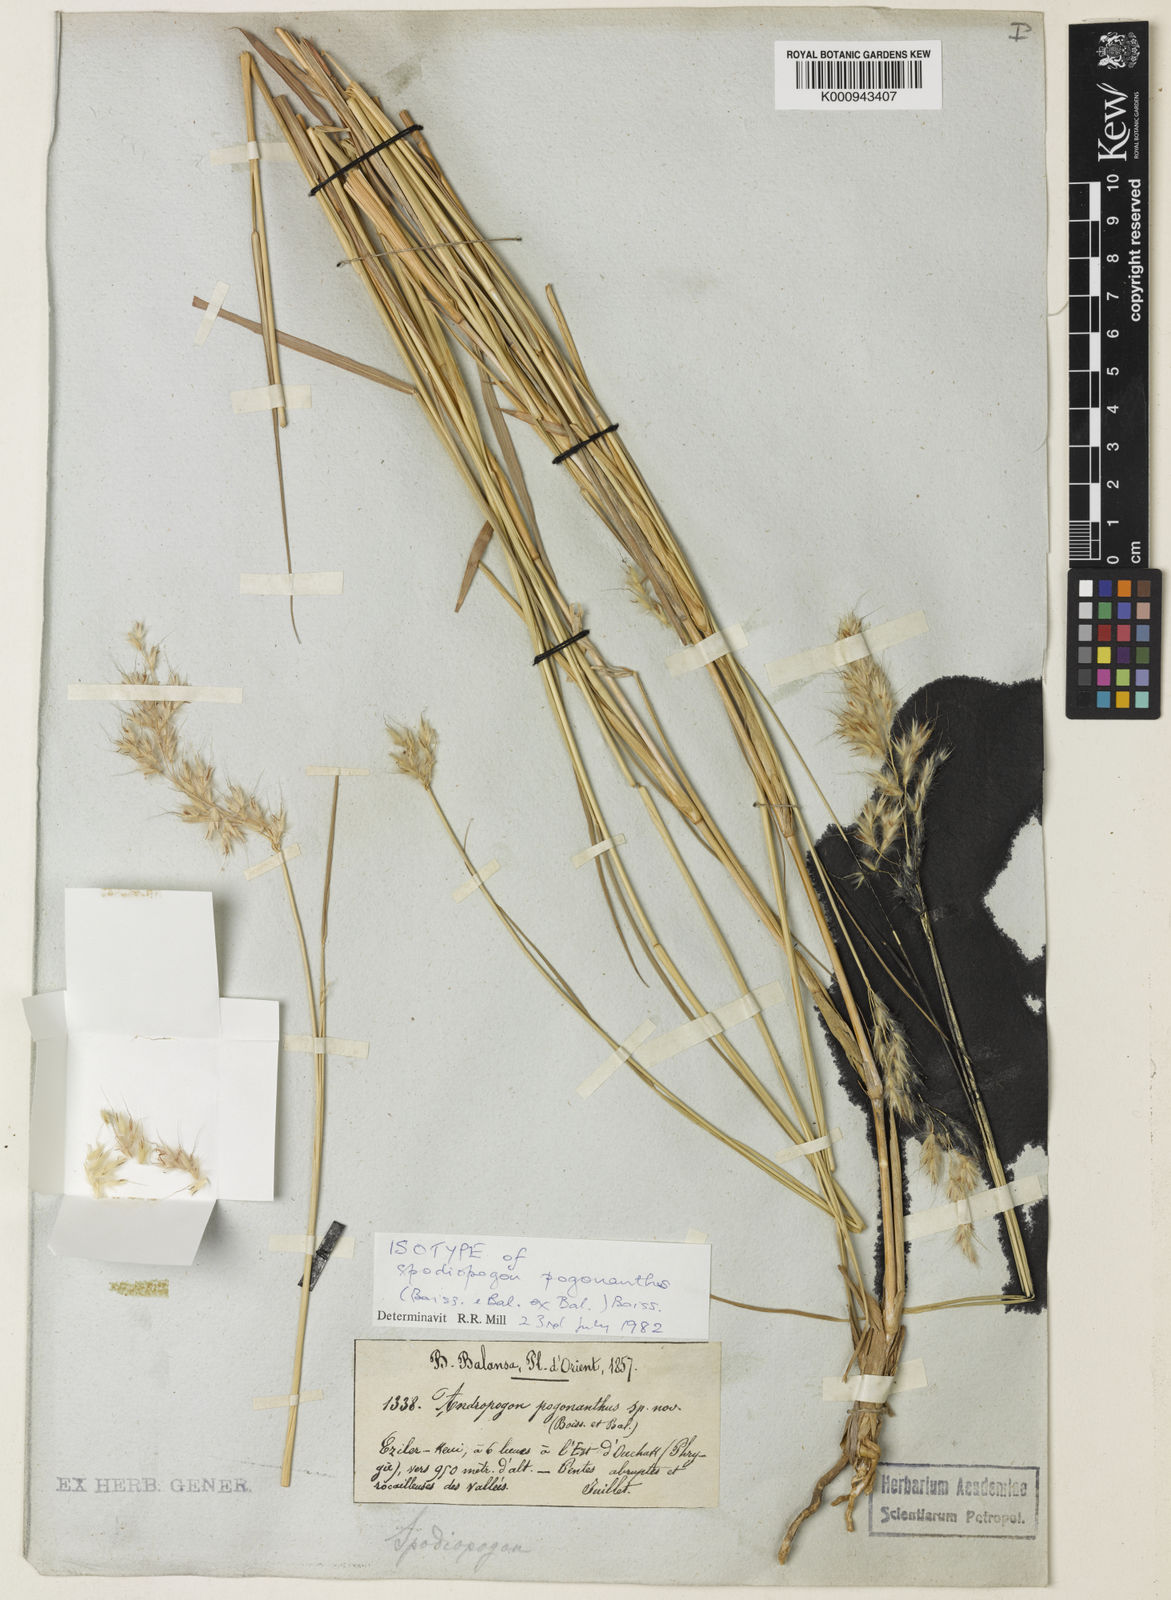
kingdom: Plantae
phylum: Tracheophyta
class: Liliopsida
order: Poales
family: Poaceae
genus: Spodiopogon
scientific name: Spodiopogon pogonanthus
